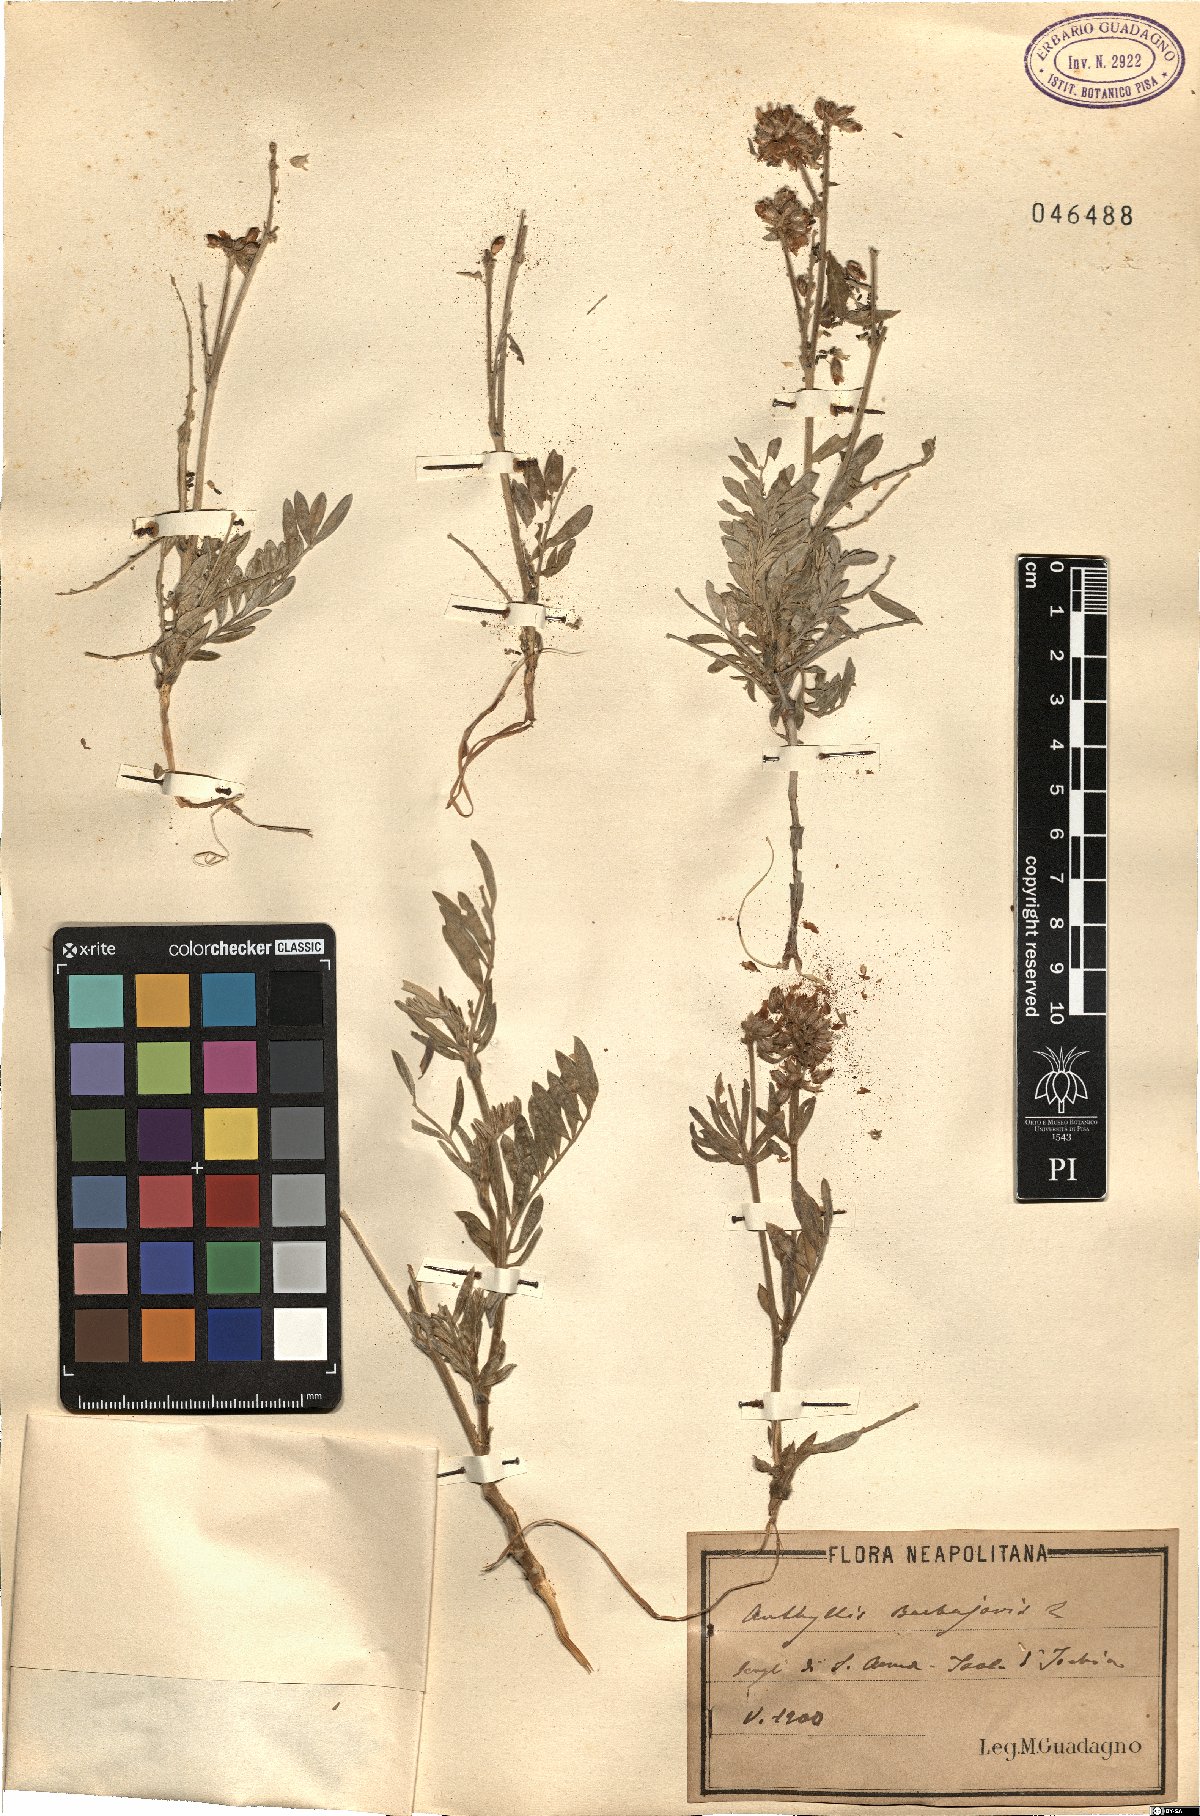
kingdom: Plantae
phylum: Tracheophyta
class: Magnoliopsida
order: Fabales
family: Fabaceae
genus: Anthyllis
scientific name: Anthyllis barba-jovis
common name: Jupiter's-beard
